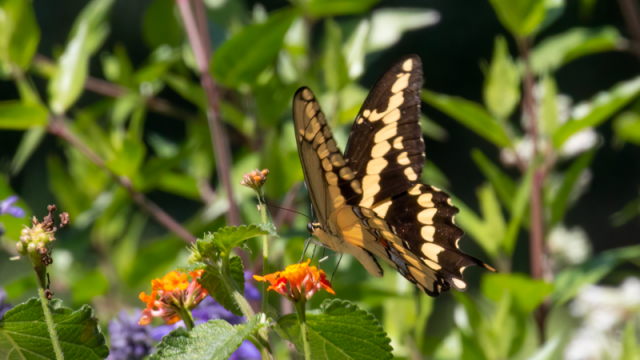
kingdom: Animalia
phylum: Arthropoda
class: Insecta
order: Lepidoptera
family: Papilionidae
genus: Papilio
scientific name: Papilio rumiko
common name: Western Giant Swallowtail
